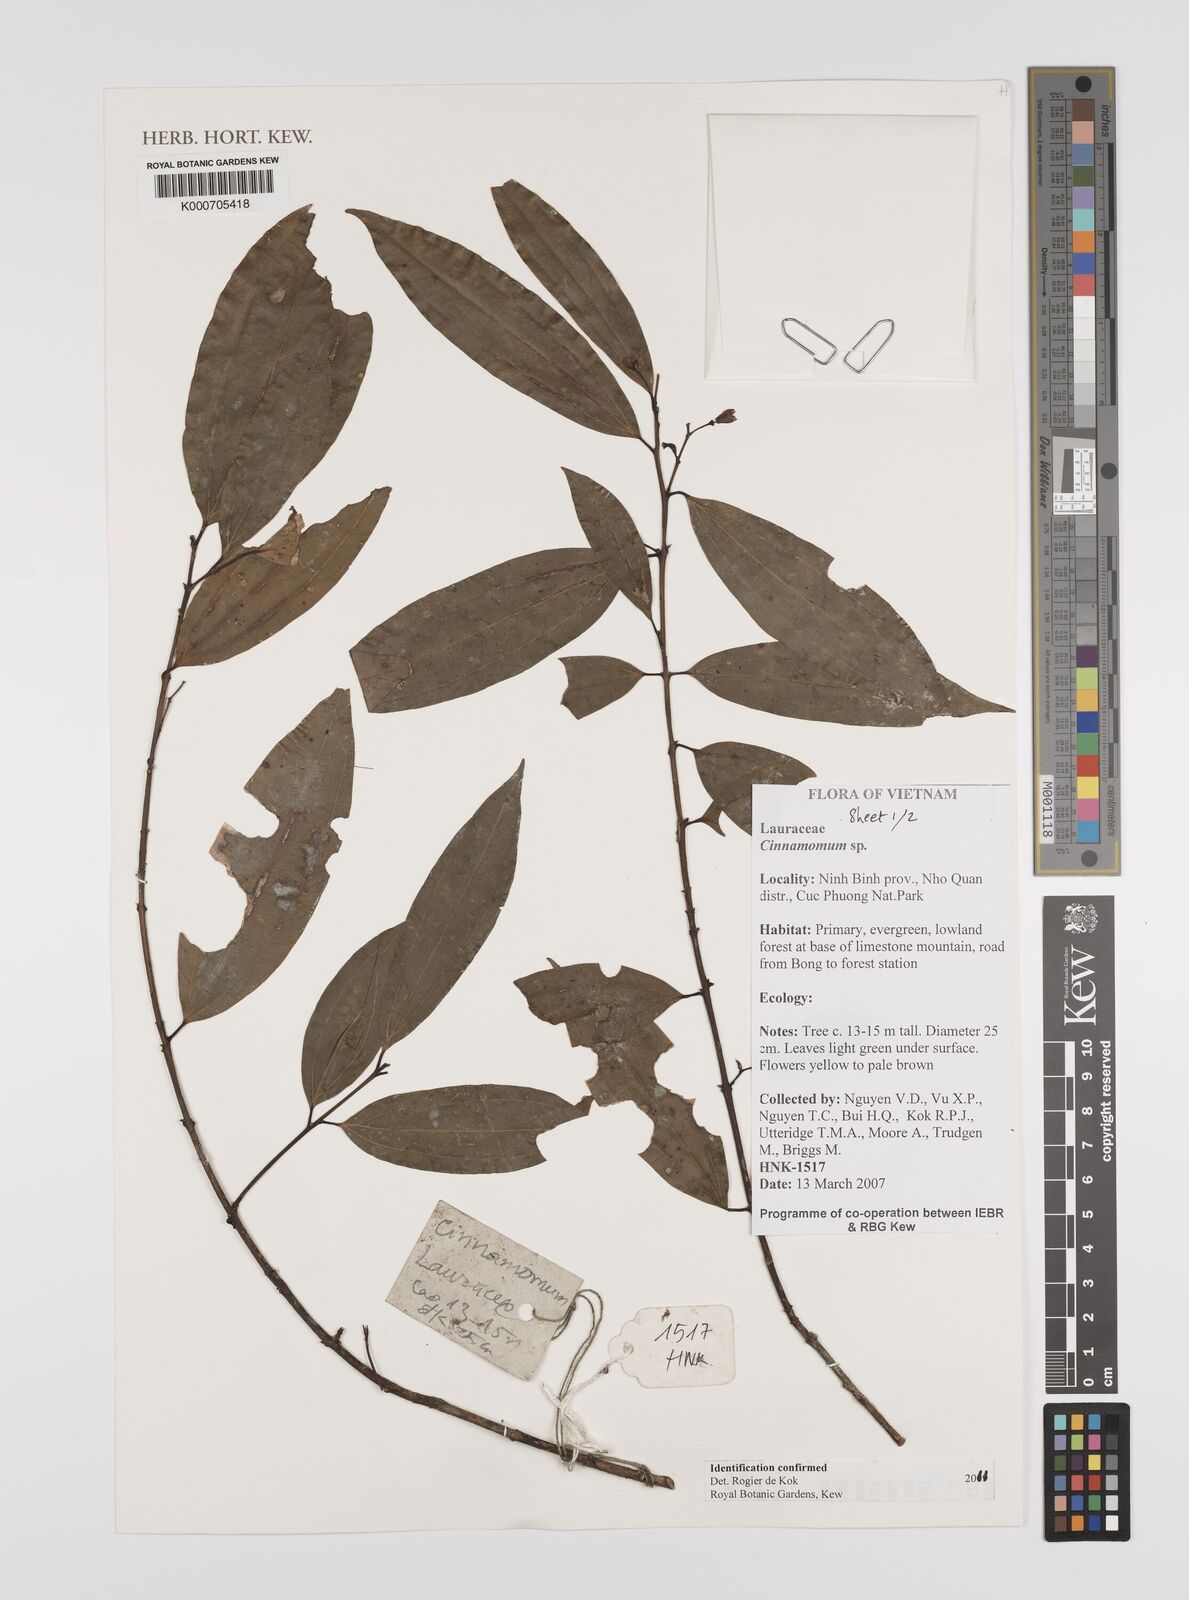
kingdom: Plantae
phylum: Tracheophyta
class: Magnoliopsida
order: Laurales
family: Lauraceae
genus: Cinnamomum
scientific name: Cinnamomum
